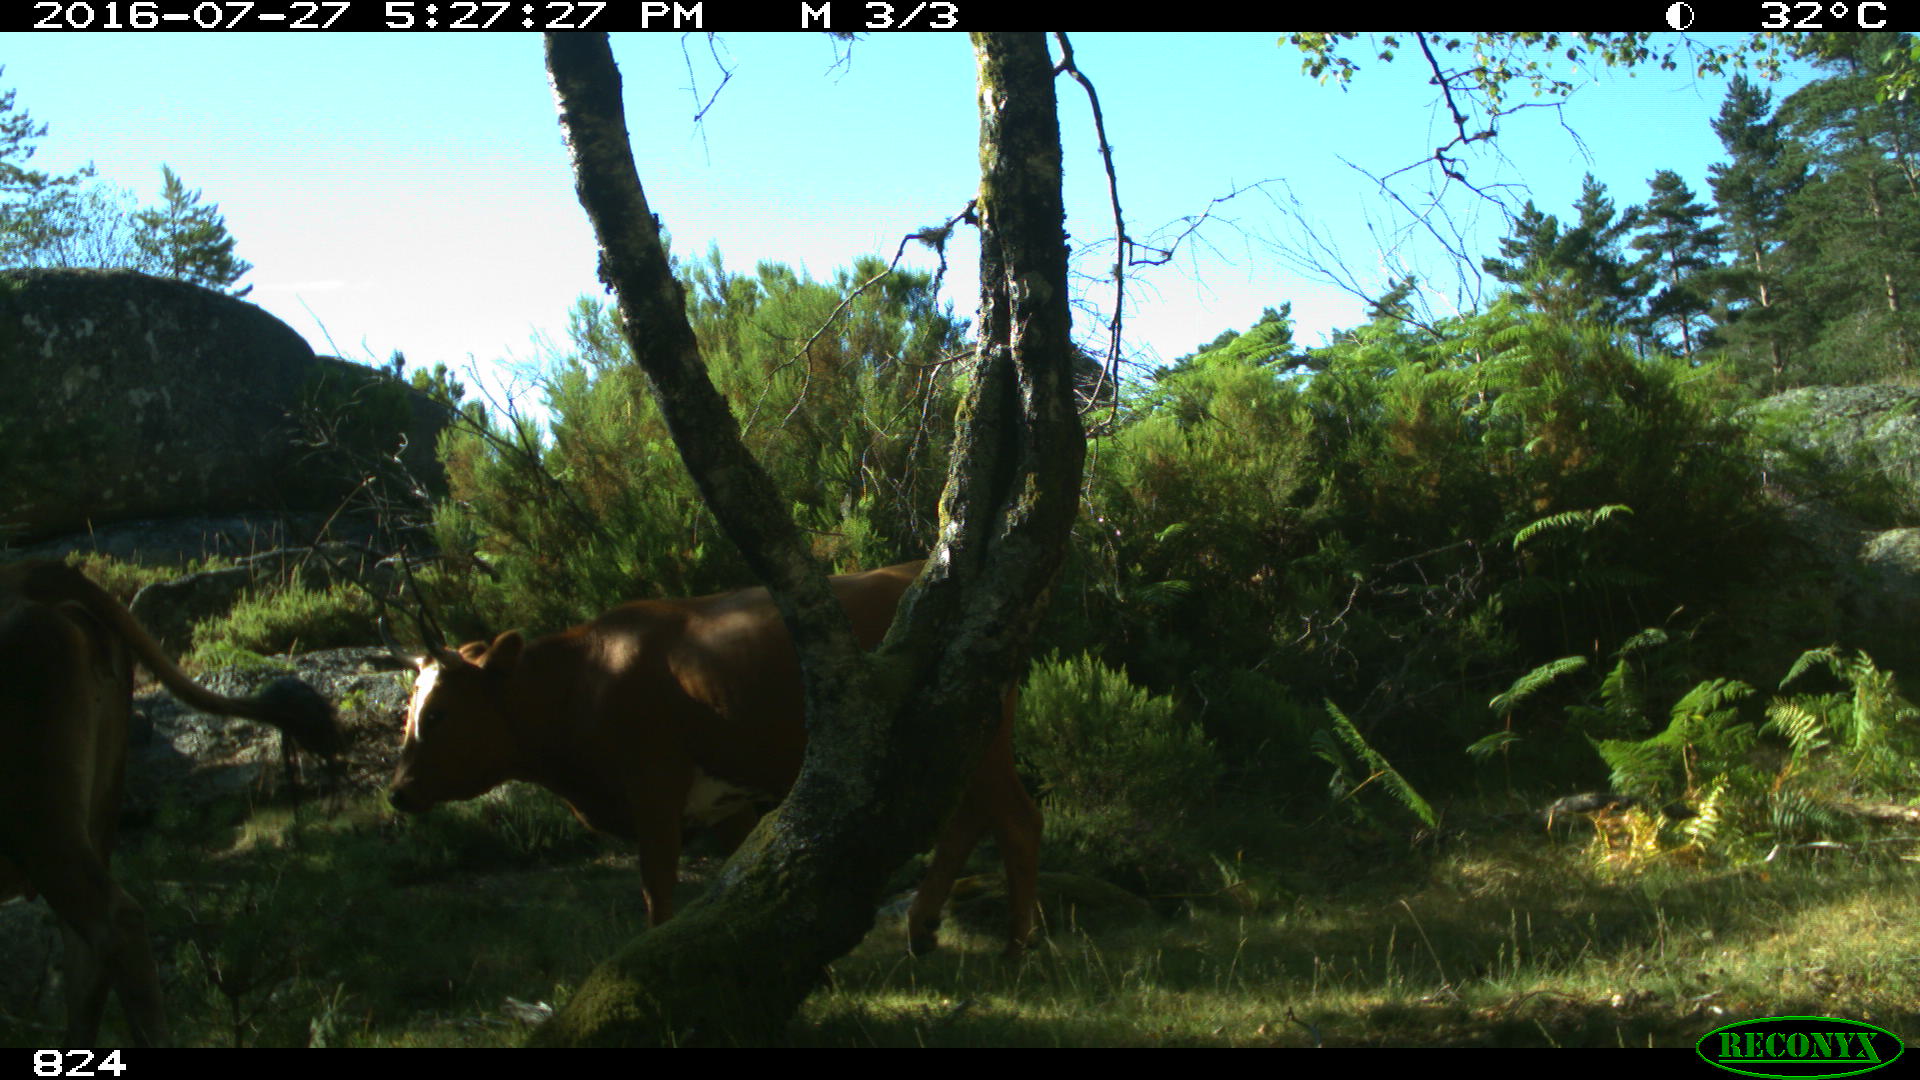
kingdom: Animalia
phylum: Chordata
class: Mammalia
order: Artiodactyla
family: Bovidae
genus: Bos
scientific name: Bos taurus
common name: Domesticated cattle
